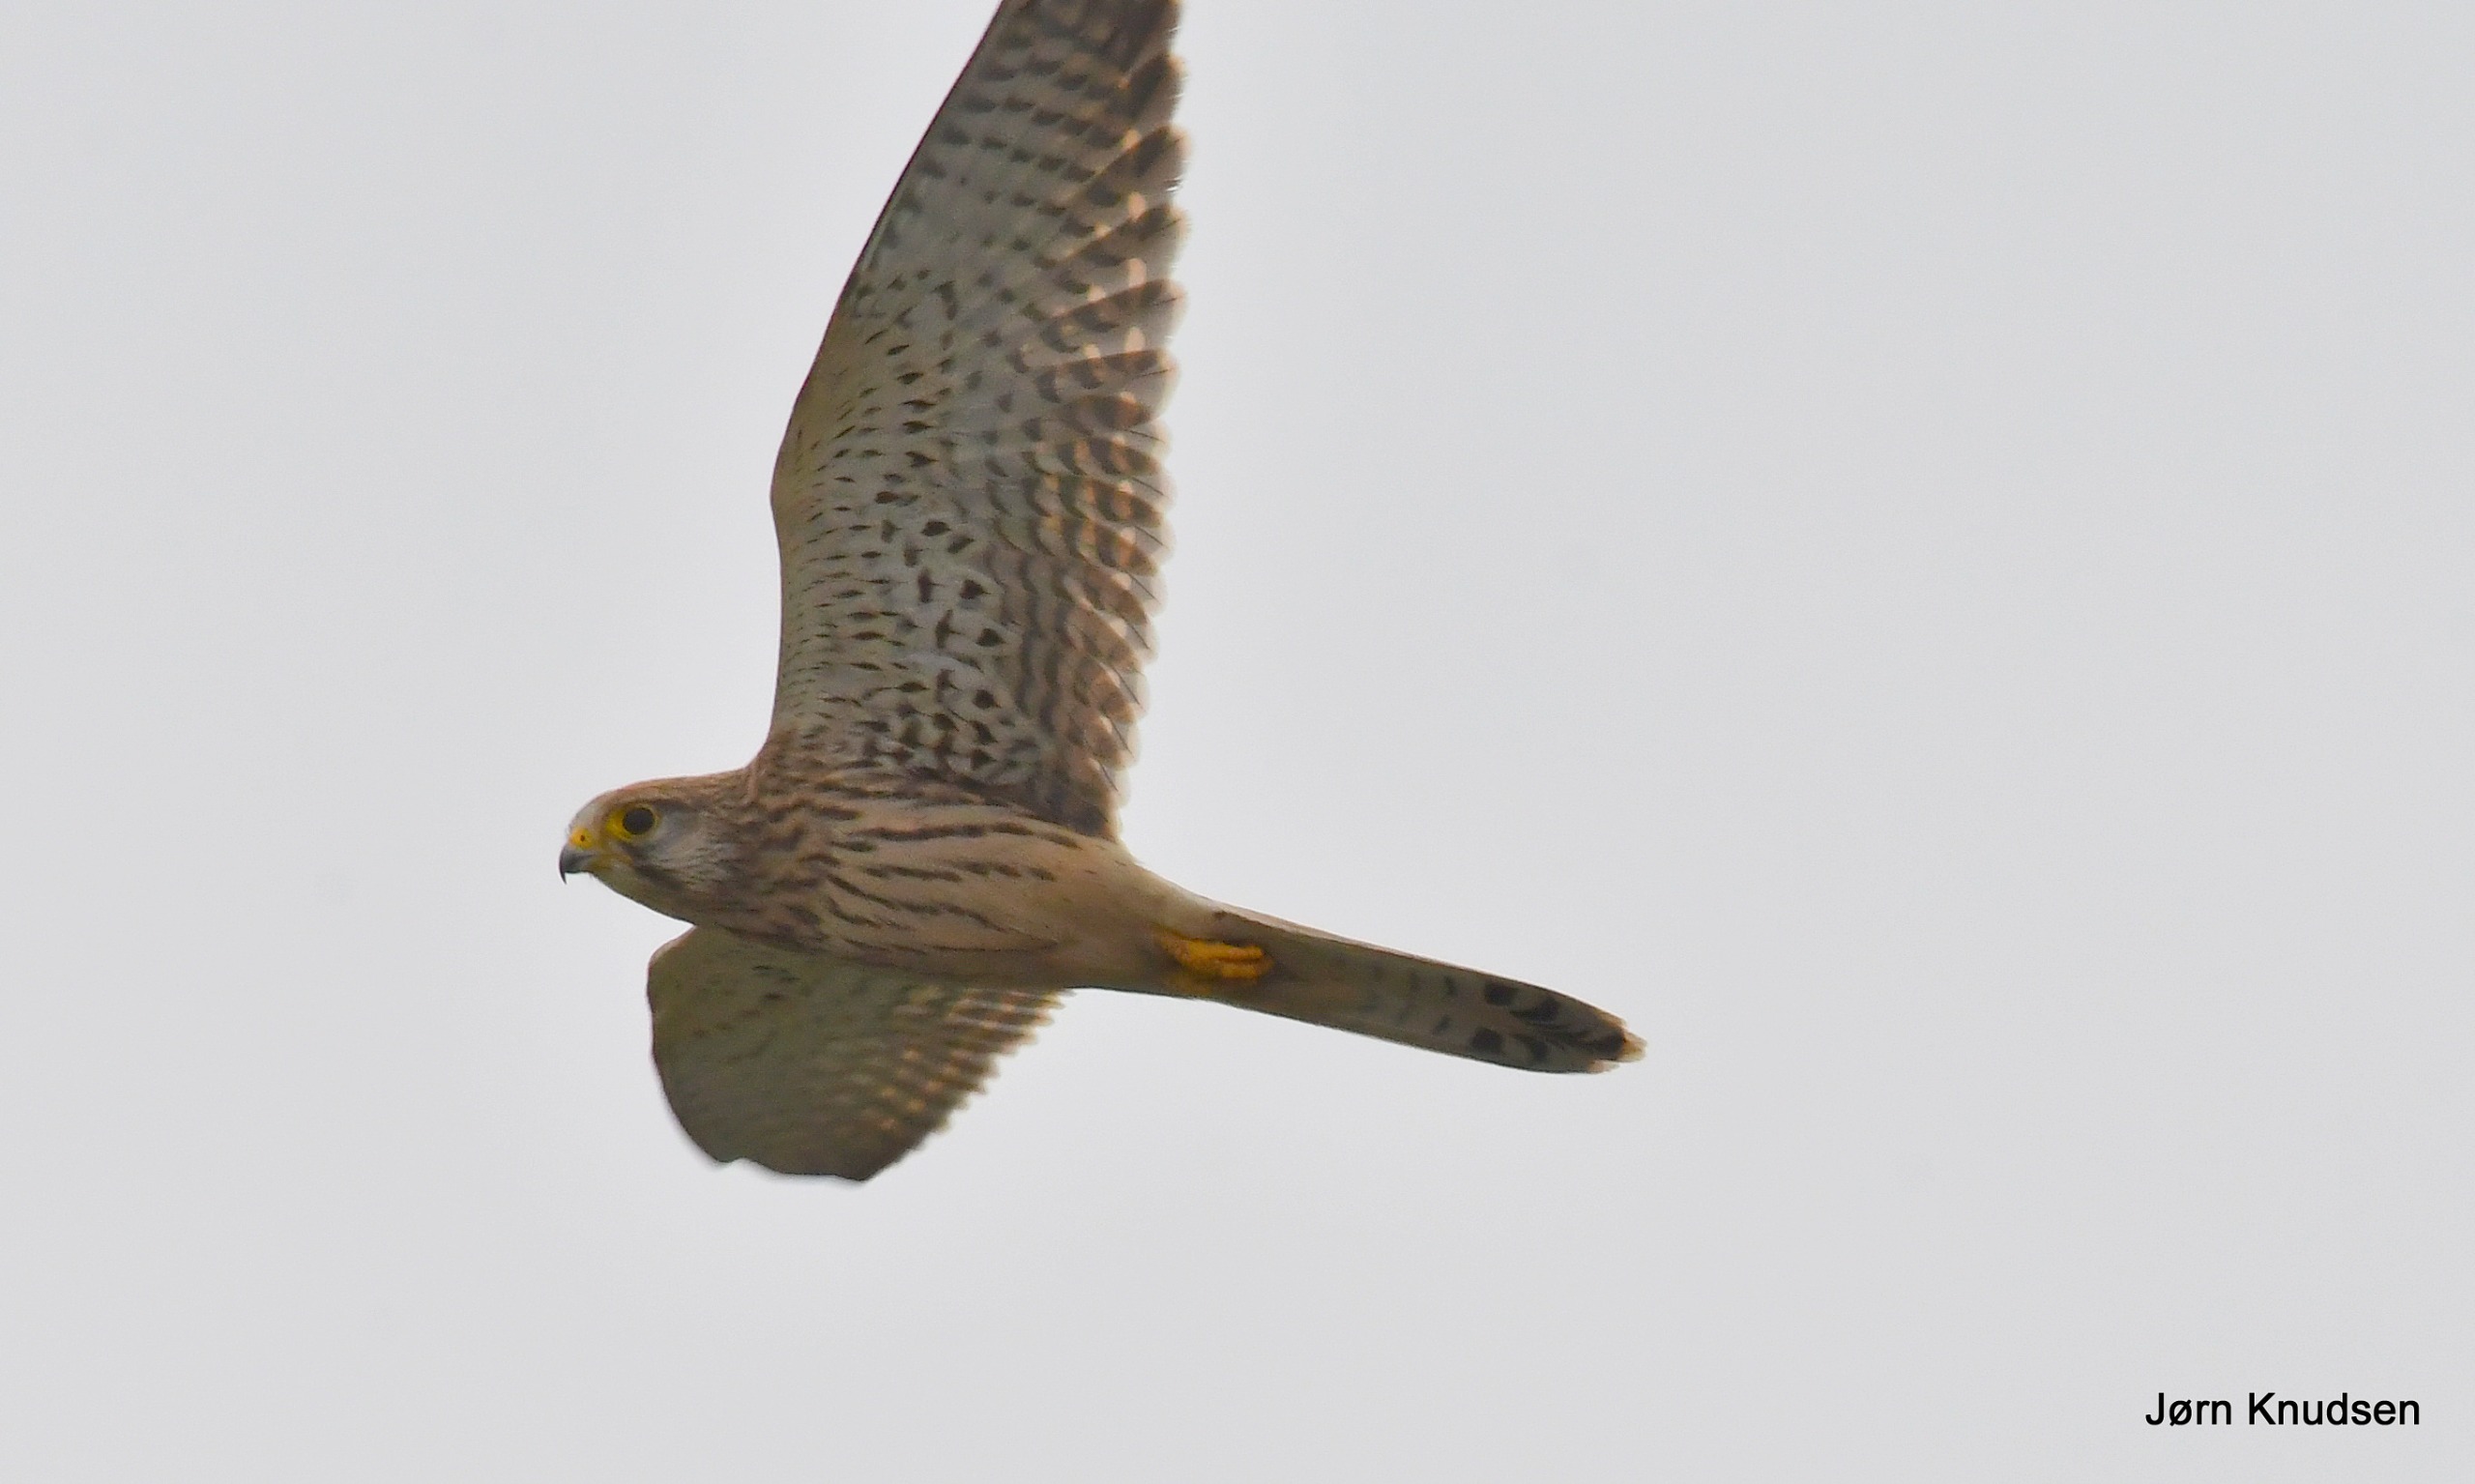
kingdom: Animalia
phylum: Chordata
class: Aves
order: Falconiformes
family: Falconidae
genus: Falco
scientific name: Falco tinnunculus
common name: Tårnfalk
